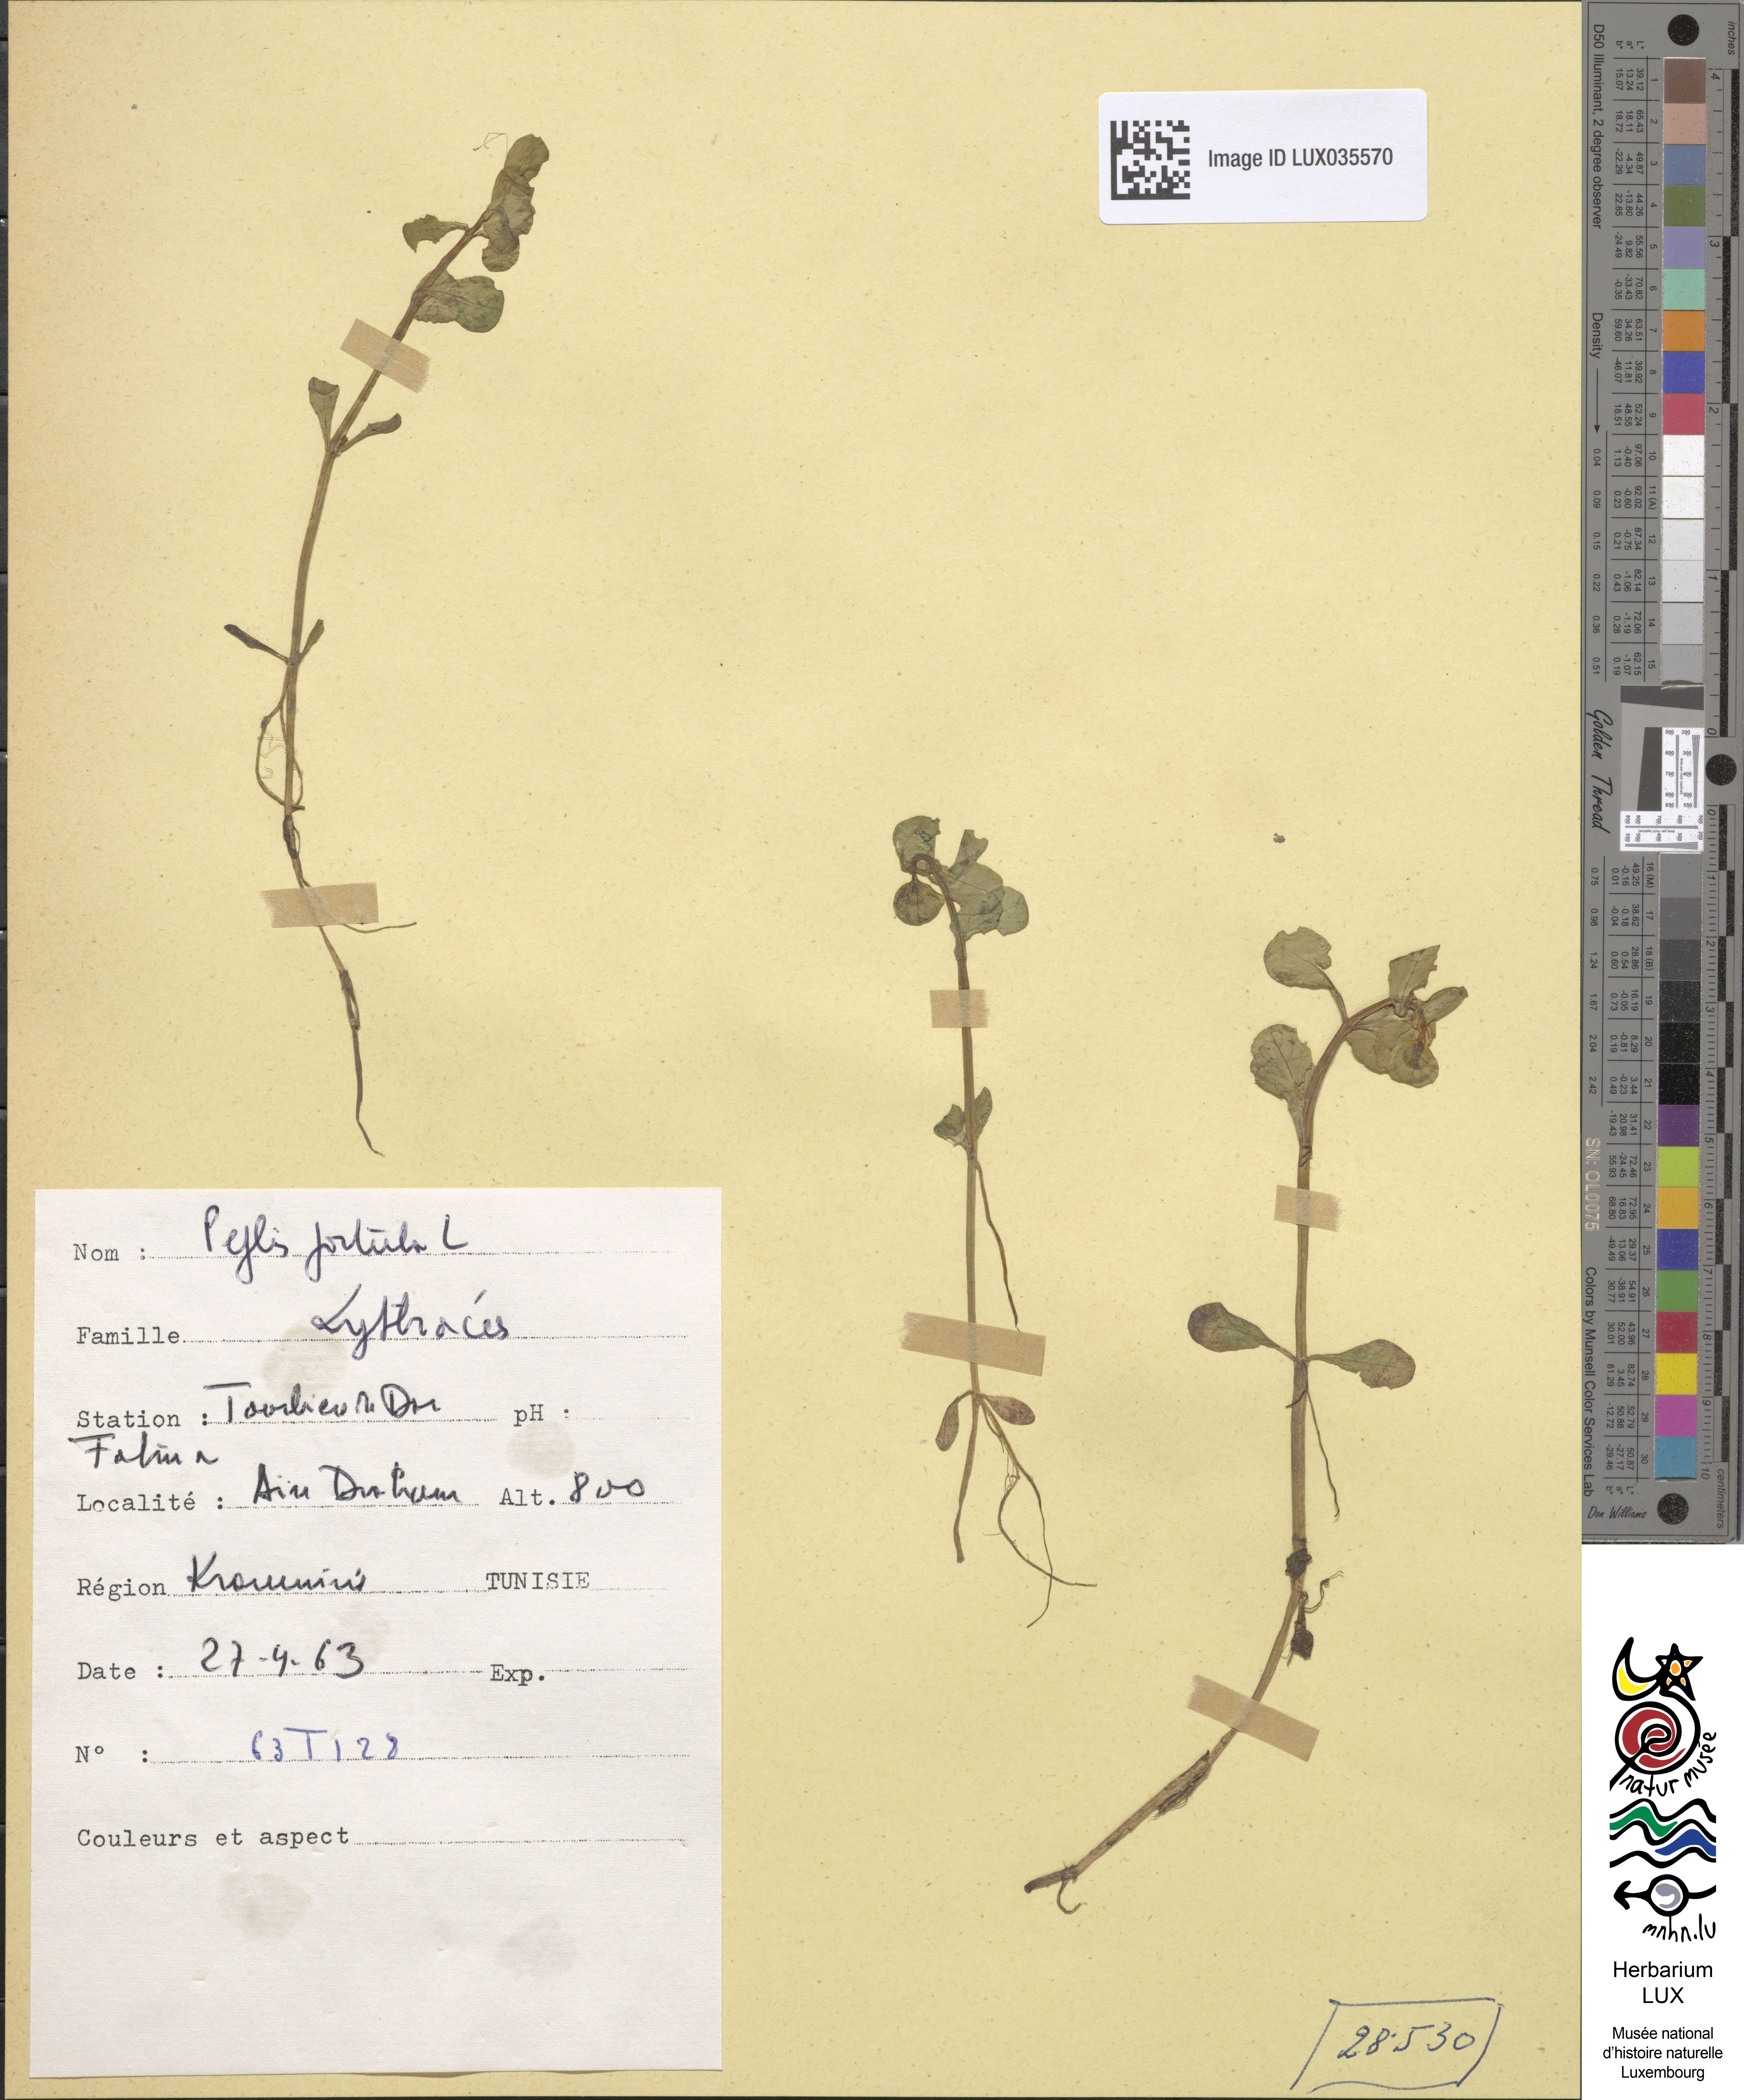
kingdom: Plantae
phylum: Tracheophyta
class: Magnoliopsida
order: Myrtales
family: Lythraceae
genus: Lythrum
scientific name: Lythrum portula
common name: Water purslane
